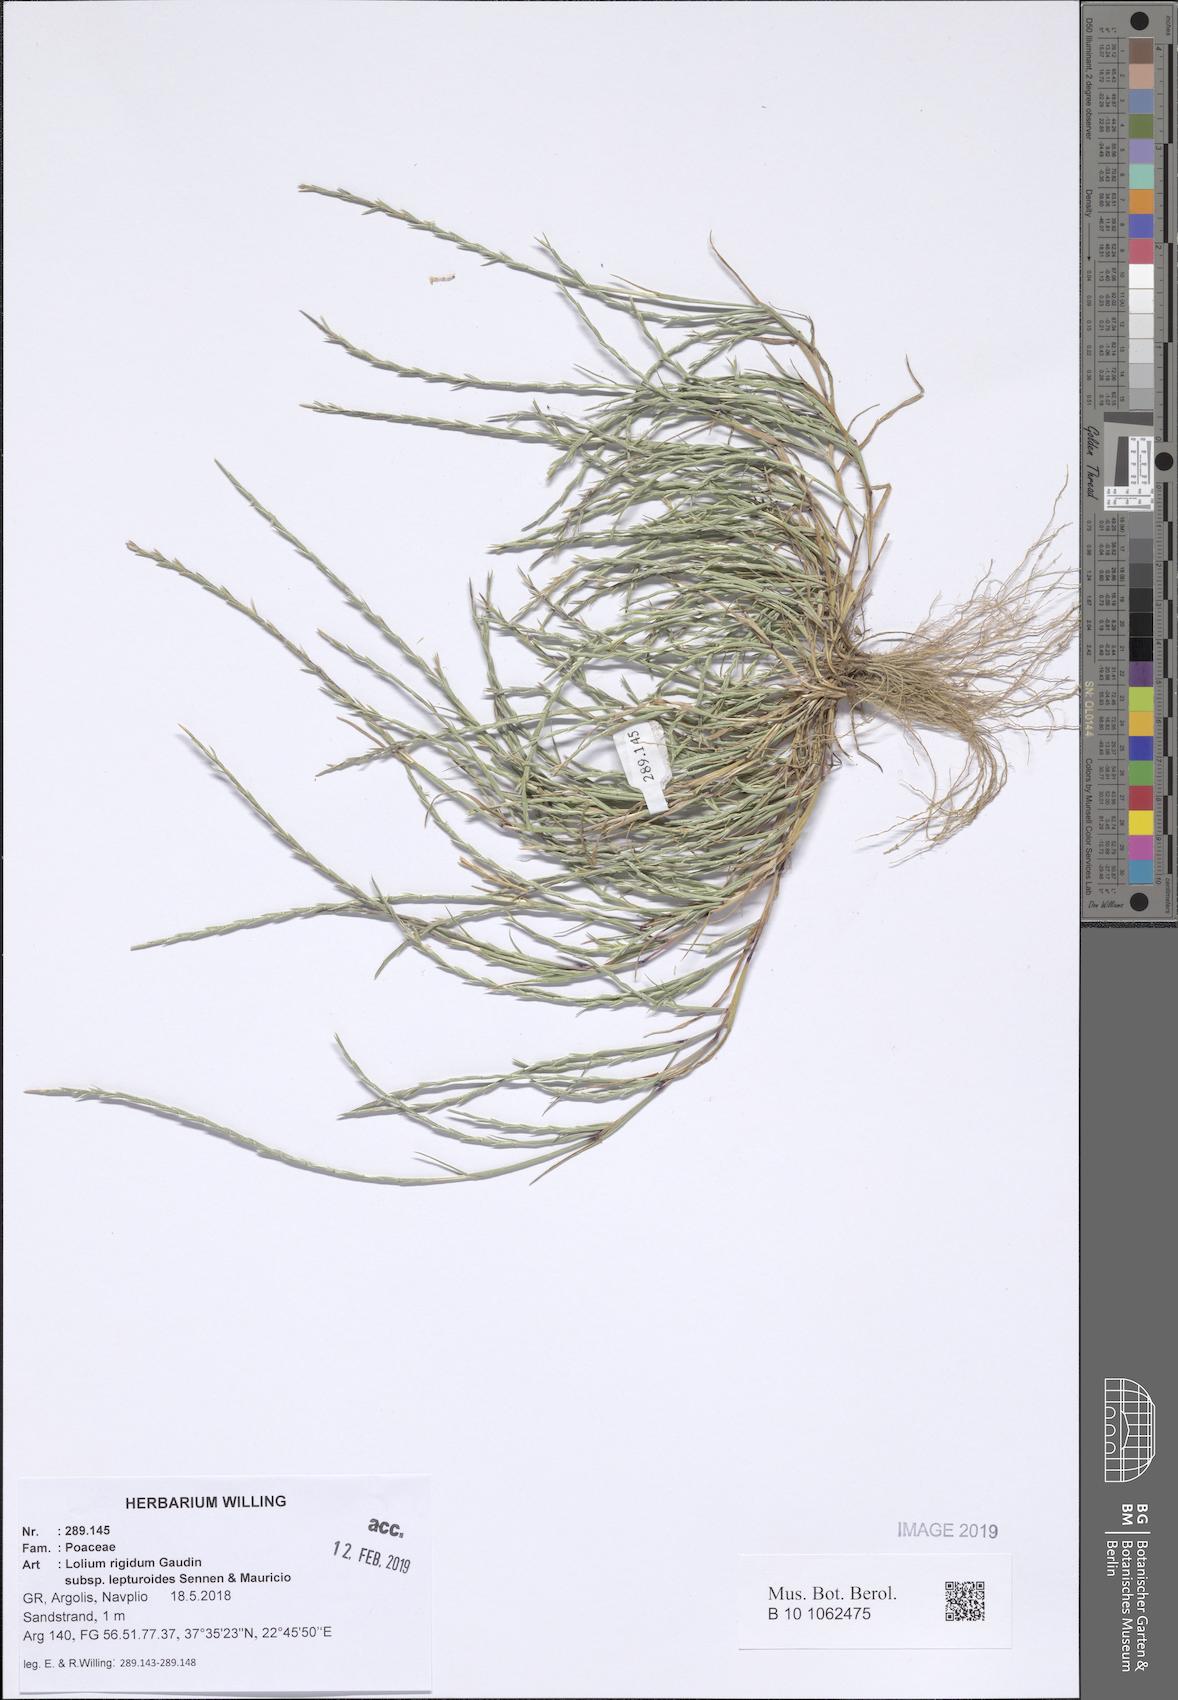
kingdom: Plantae
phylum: Tracheophyta
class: Liliopsida
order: Poales
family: Poaceae
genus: Lolium
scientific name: Lolium rigidum
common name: Wimmera ryegrass
